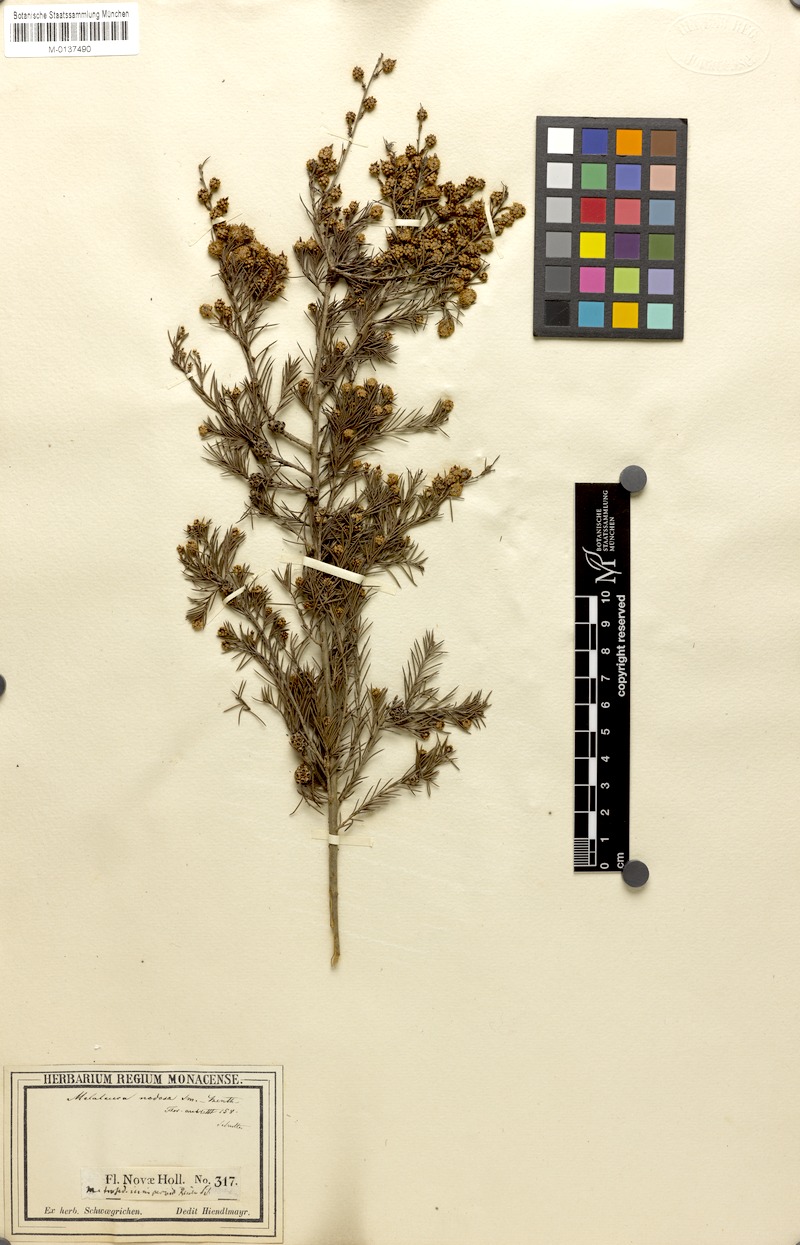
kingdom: Plantae
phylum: Tracheophyta
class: Magnoliopsida
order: Myrtales
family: Myrtaceae
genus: Melaleuca
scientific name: Melaleuca nodosa
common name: Prickly-leaf paperbark
